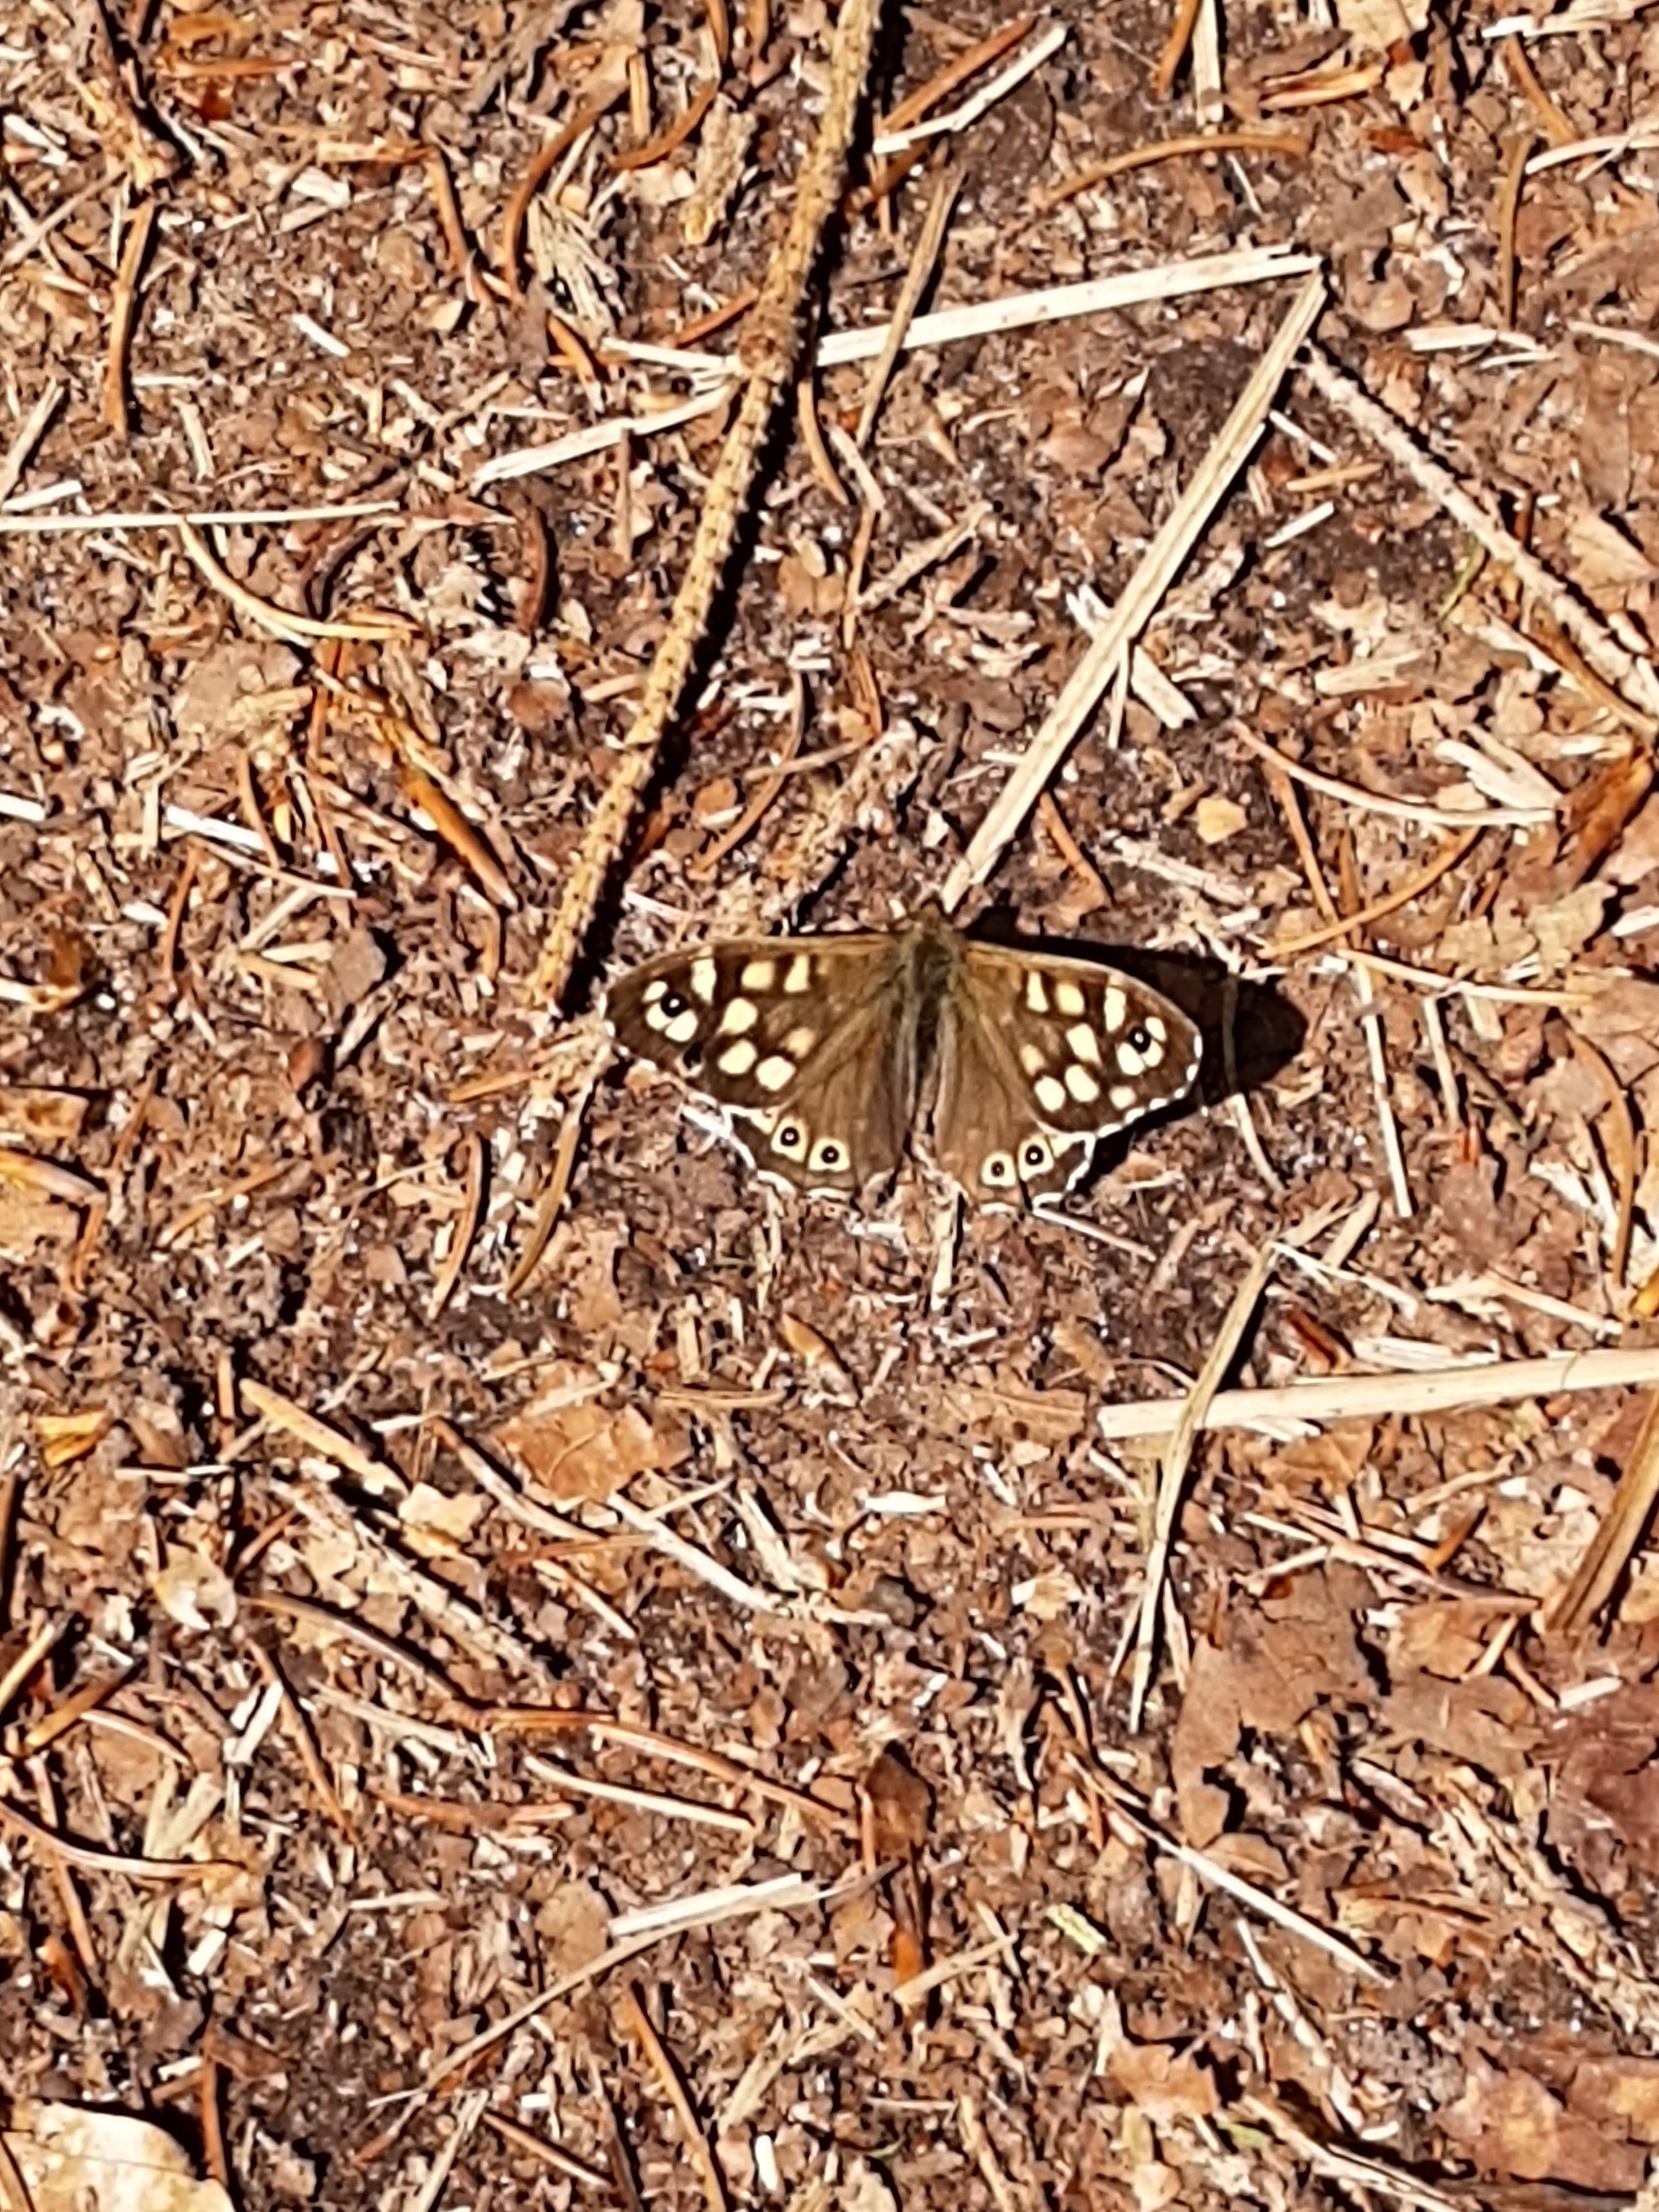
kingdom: Animalia
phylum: Arthropoda
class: Insecta
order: Lepidoptera
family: Nymphalidae
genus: Pararge
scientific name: Pararge aegeria
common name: Skovrandøje
